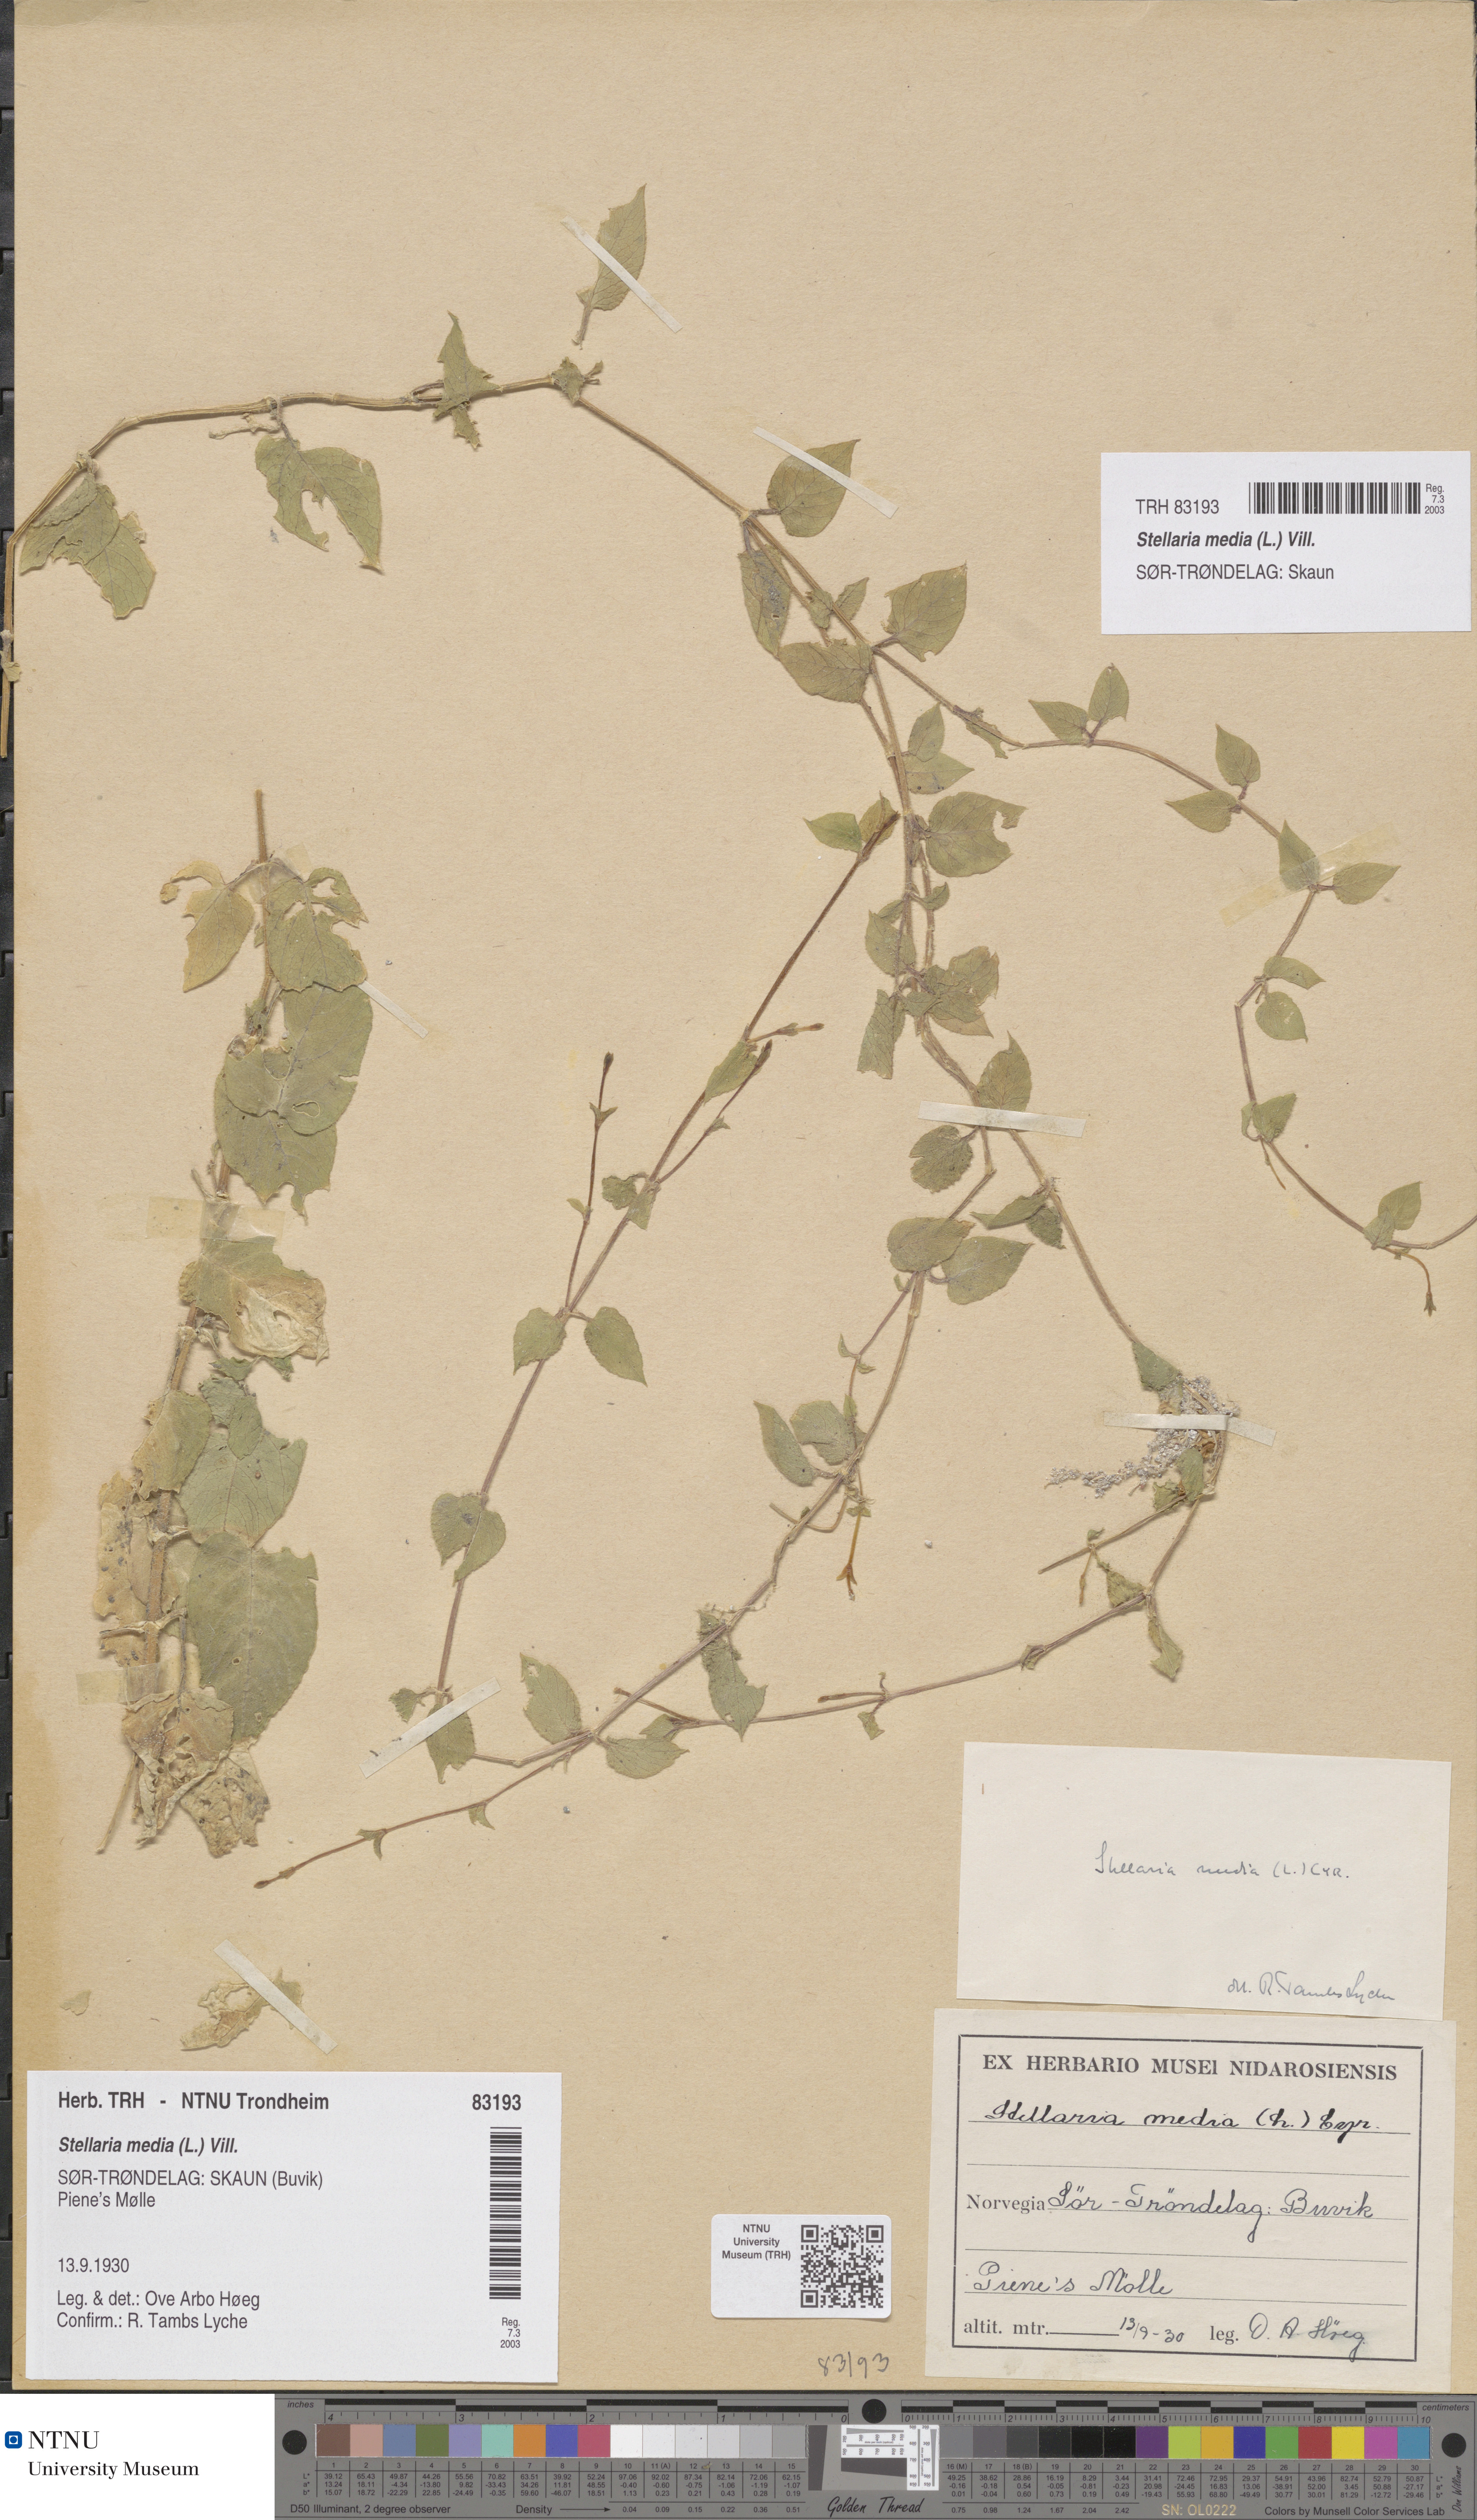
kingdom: Plantae
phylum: Tracheophyta
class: Magnoliopsida
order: Caryophyllales
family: Caryophyllaceae
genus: Stellaria
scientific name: Stellaria media
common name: Common chickweed
